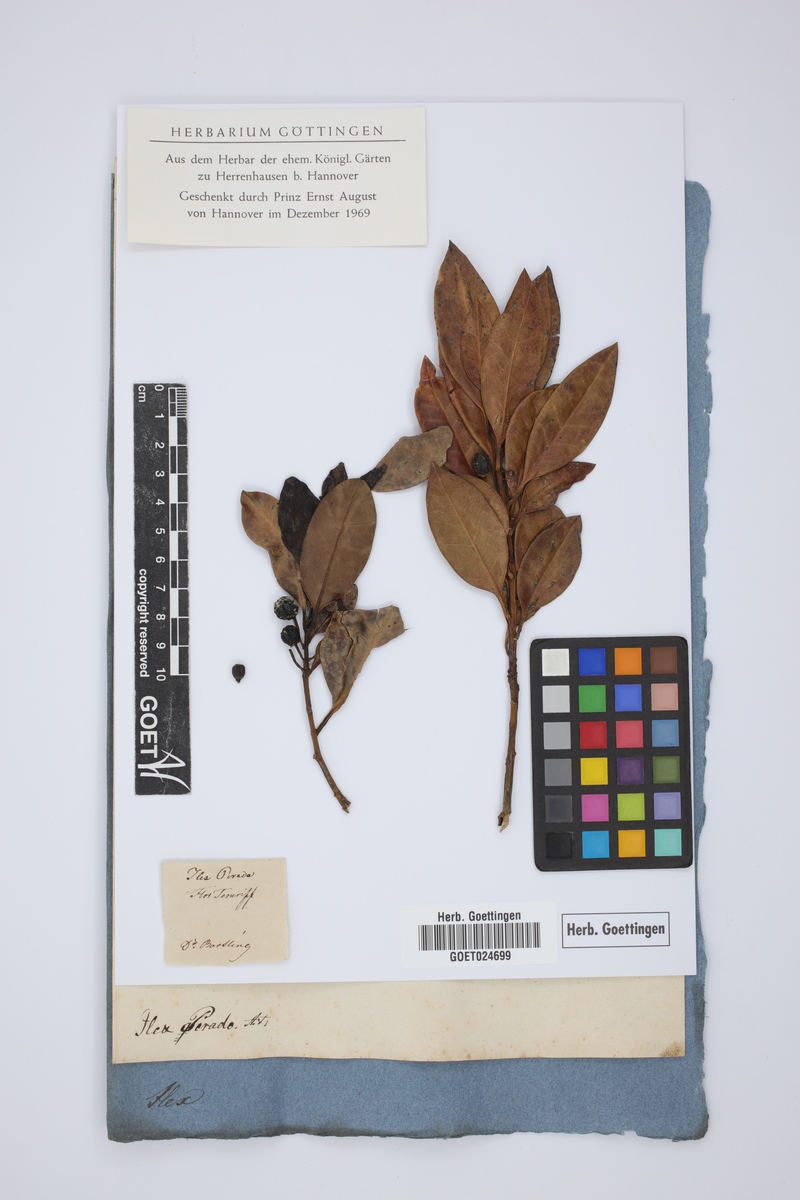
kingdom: Plantae
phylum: Tracheophyta
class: Magnoliopsida
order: Aquifoliales
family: Aquifoliaceae
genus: Ilex
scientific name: Ilex perado
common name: Madeira holly
